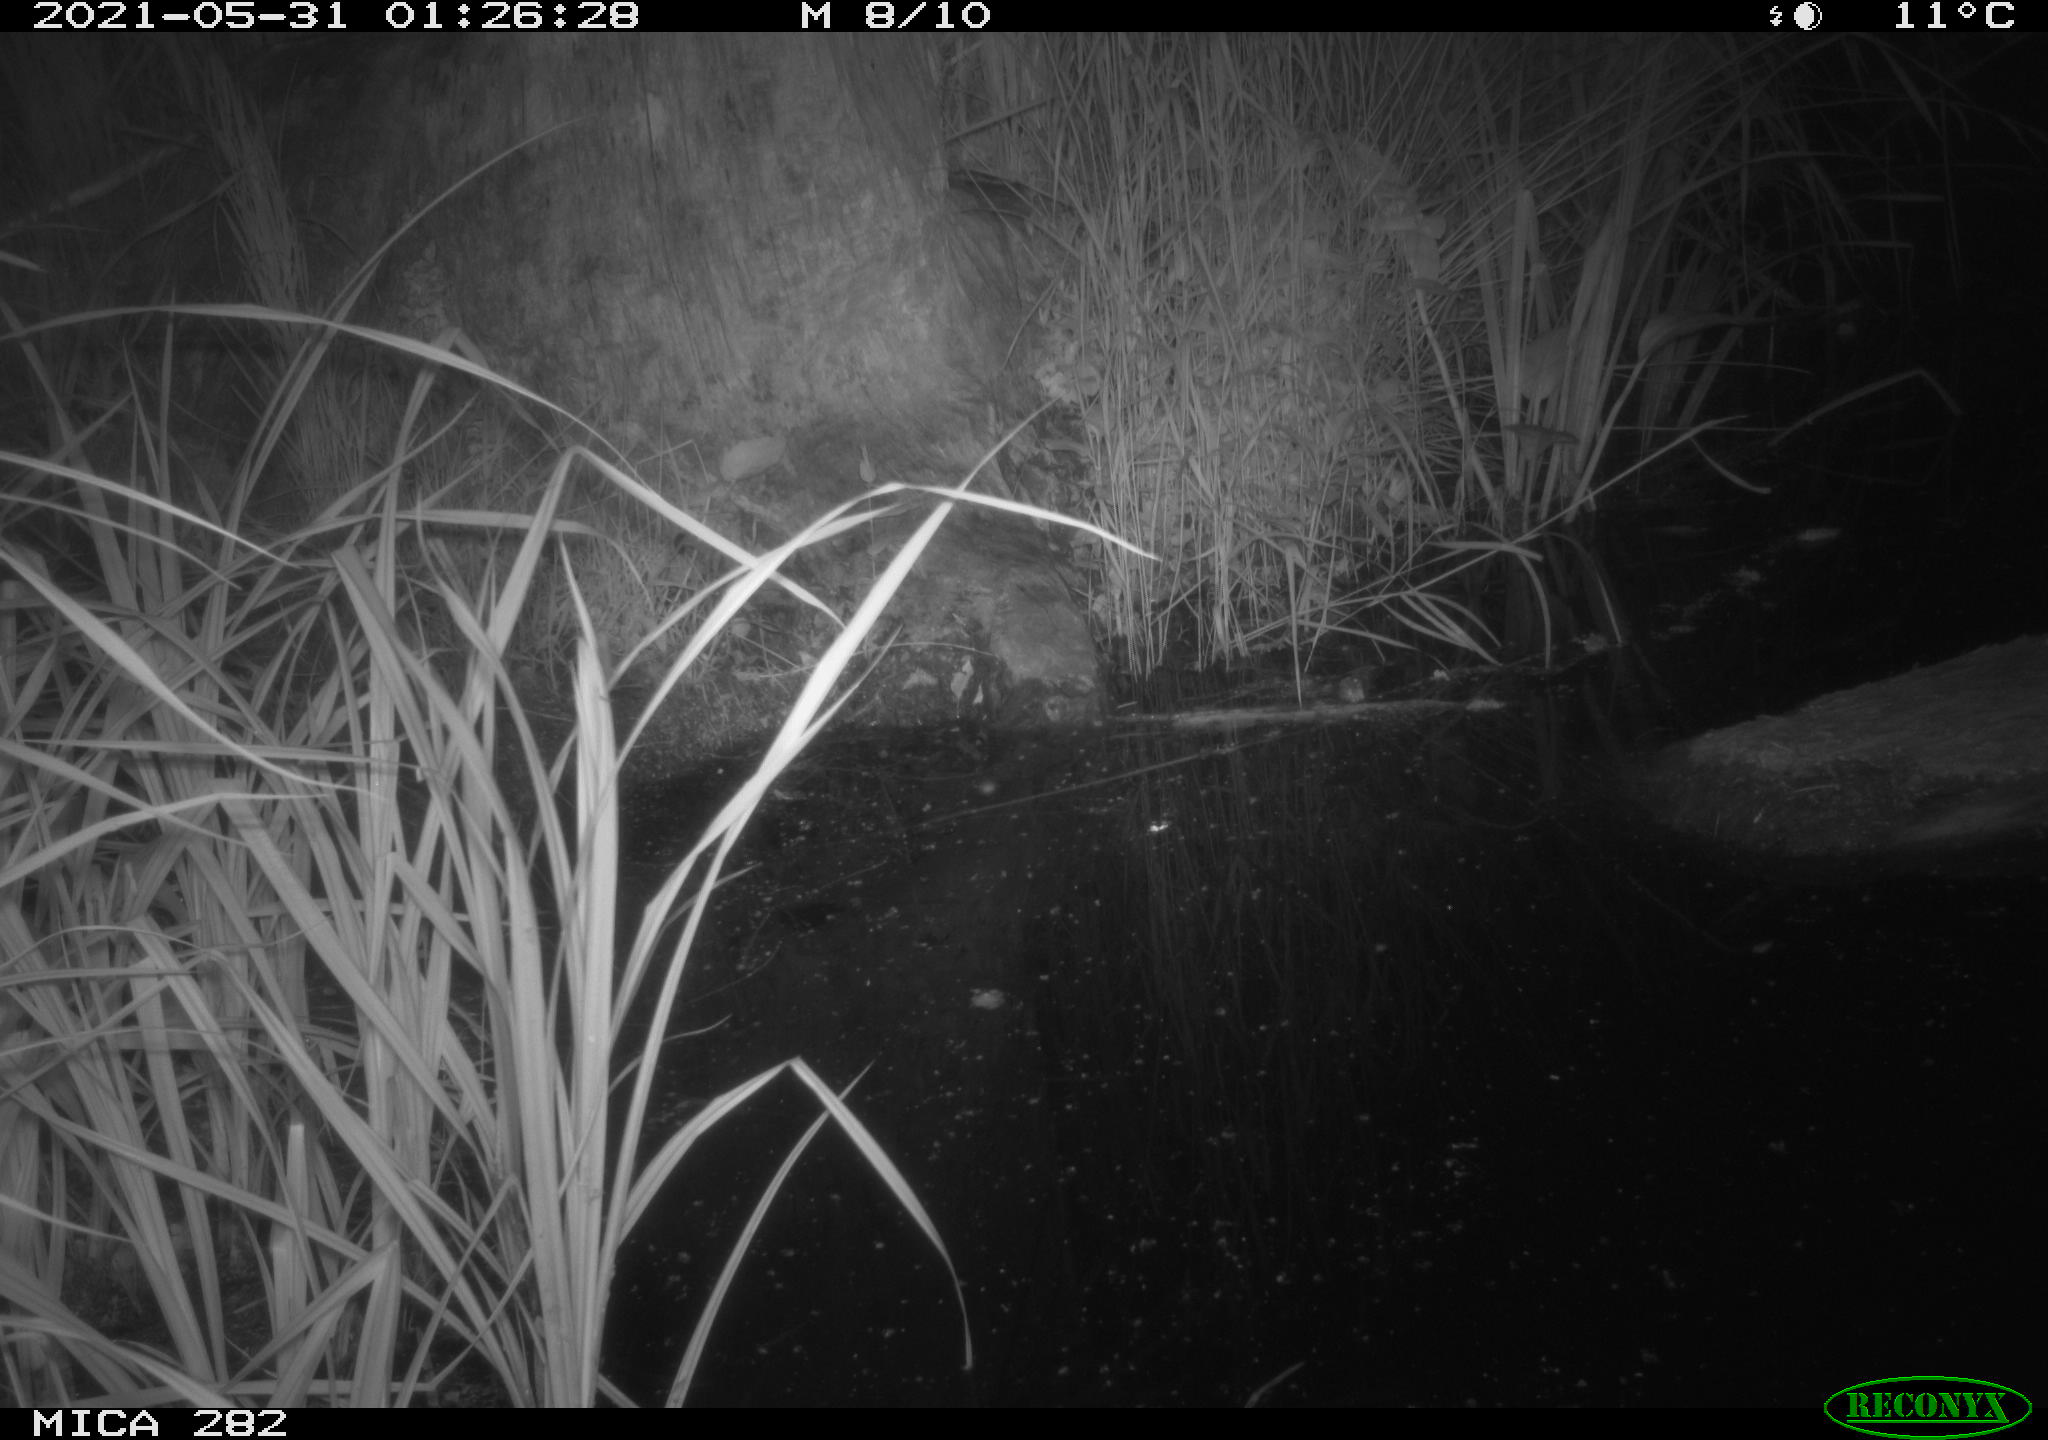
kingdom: Animalia
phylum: Chordata
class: Mammalia
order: Carnivora
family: Mustelidae
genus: Martes
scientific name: Martes foina
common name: Beech marten
